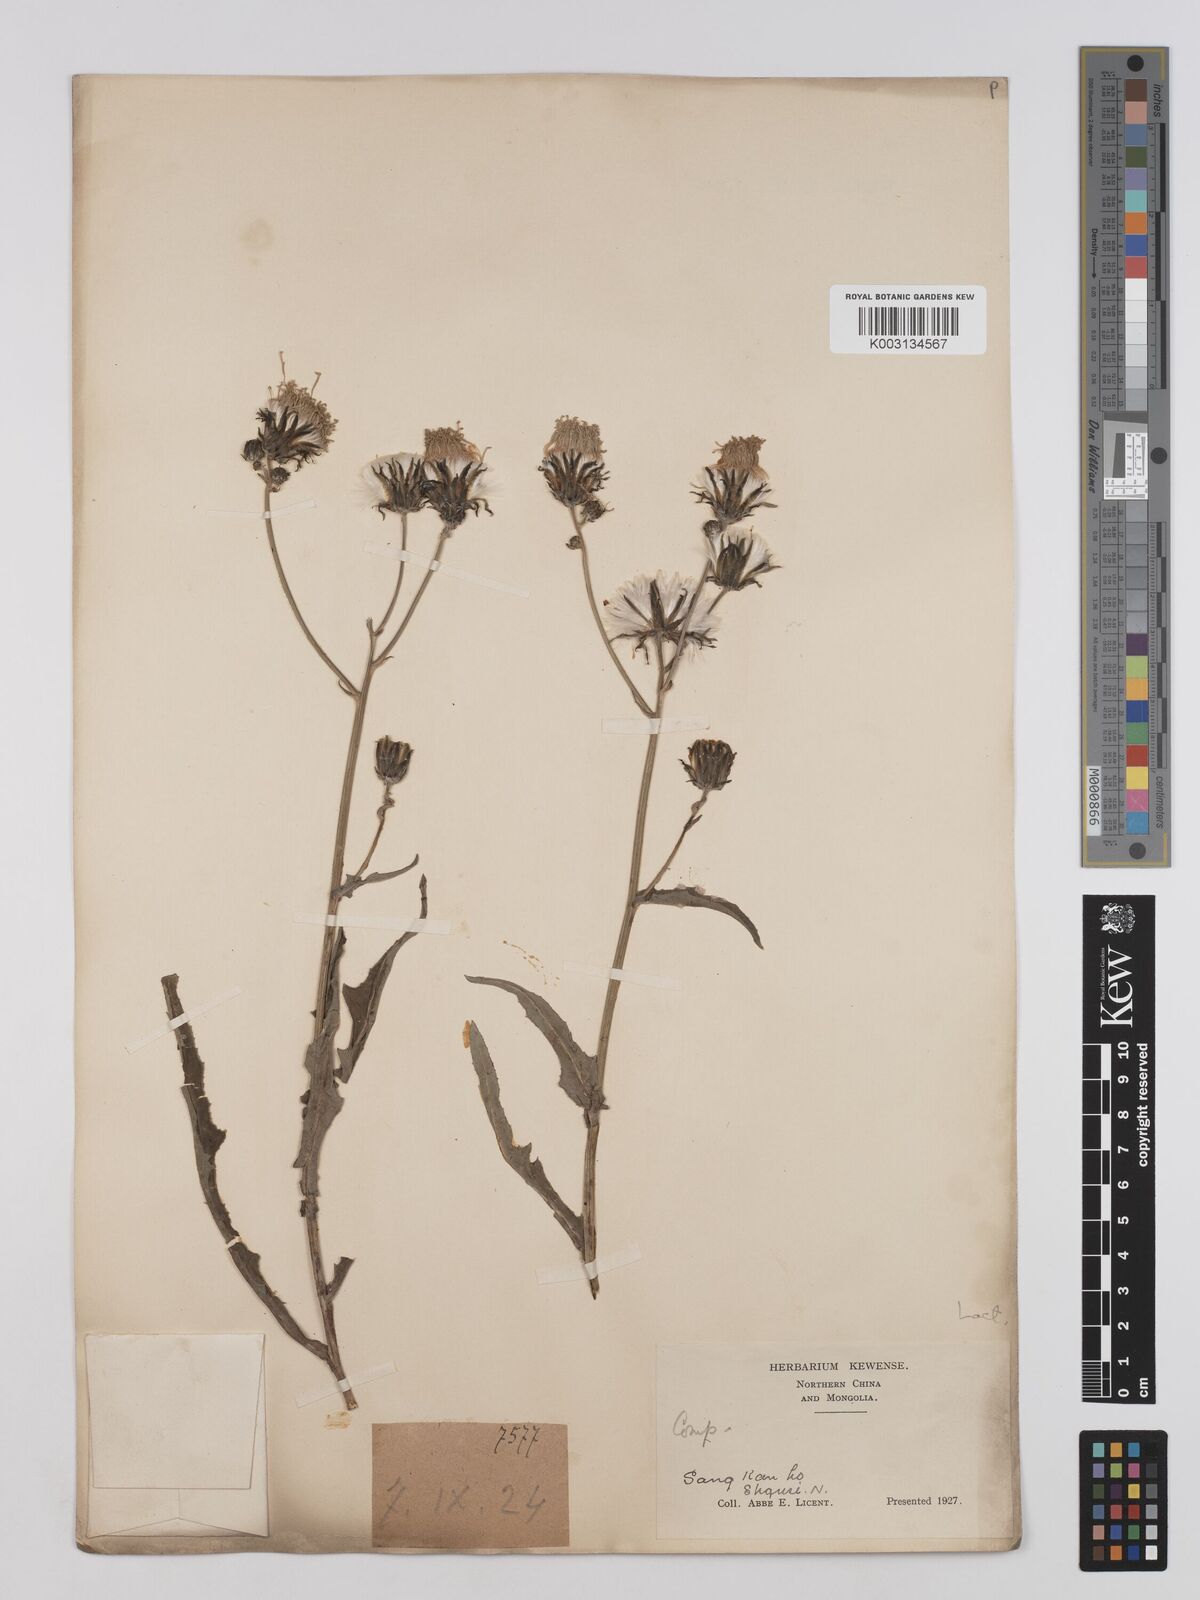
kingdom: Plantae
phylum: Tracheophyta
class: Magnoliopsida
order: Asterales
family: Asteraceae
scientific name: Asteraceae
